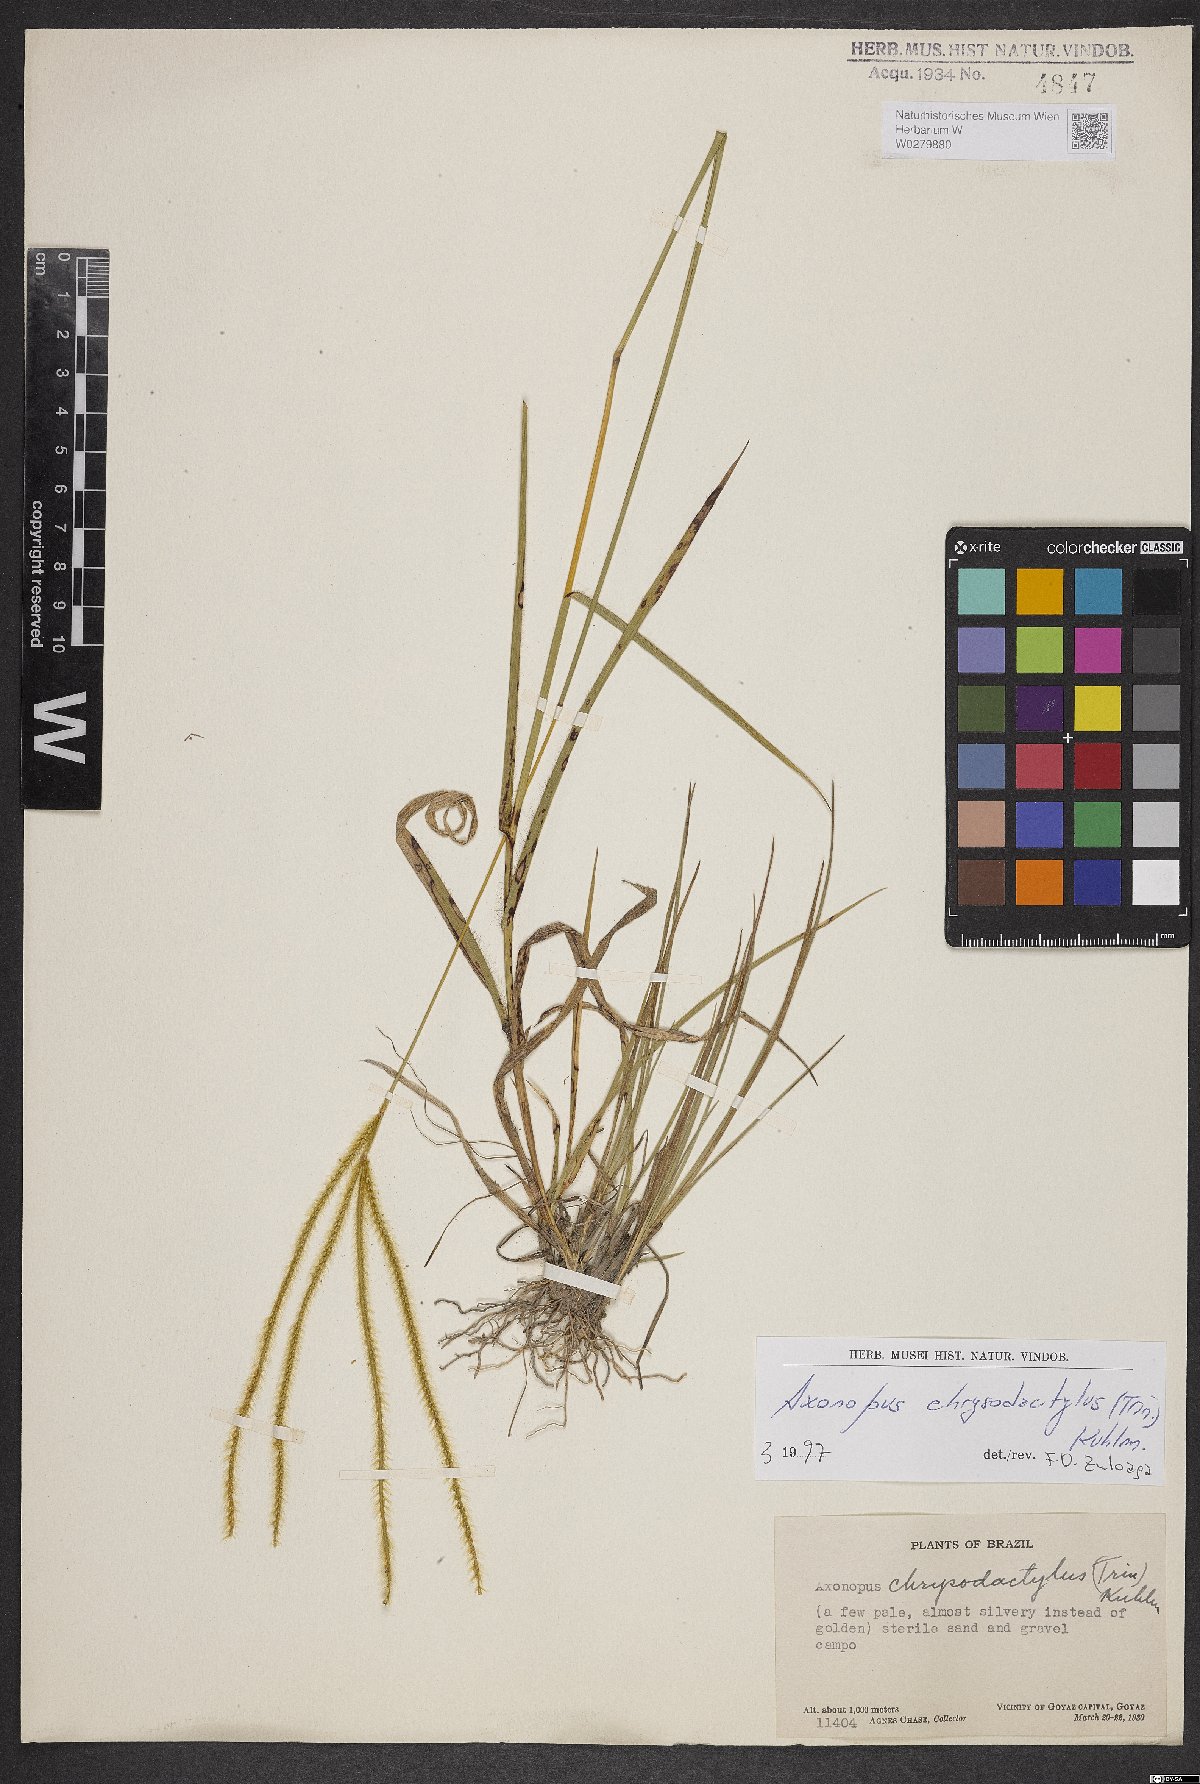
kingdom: Plantae
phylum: Tracheophyta
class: Liliopsida
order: Poales
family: Poaceae
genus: Axonopus
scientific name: Axonopus aureus
